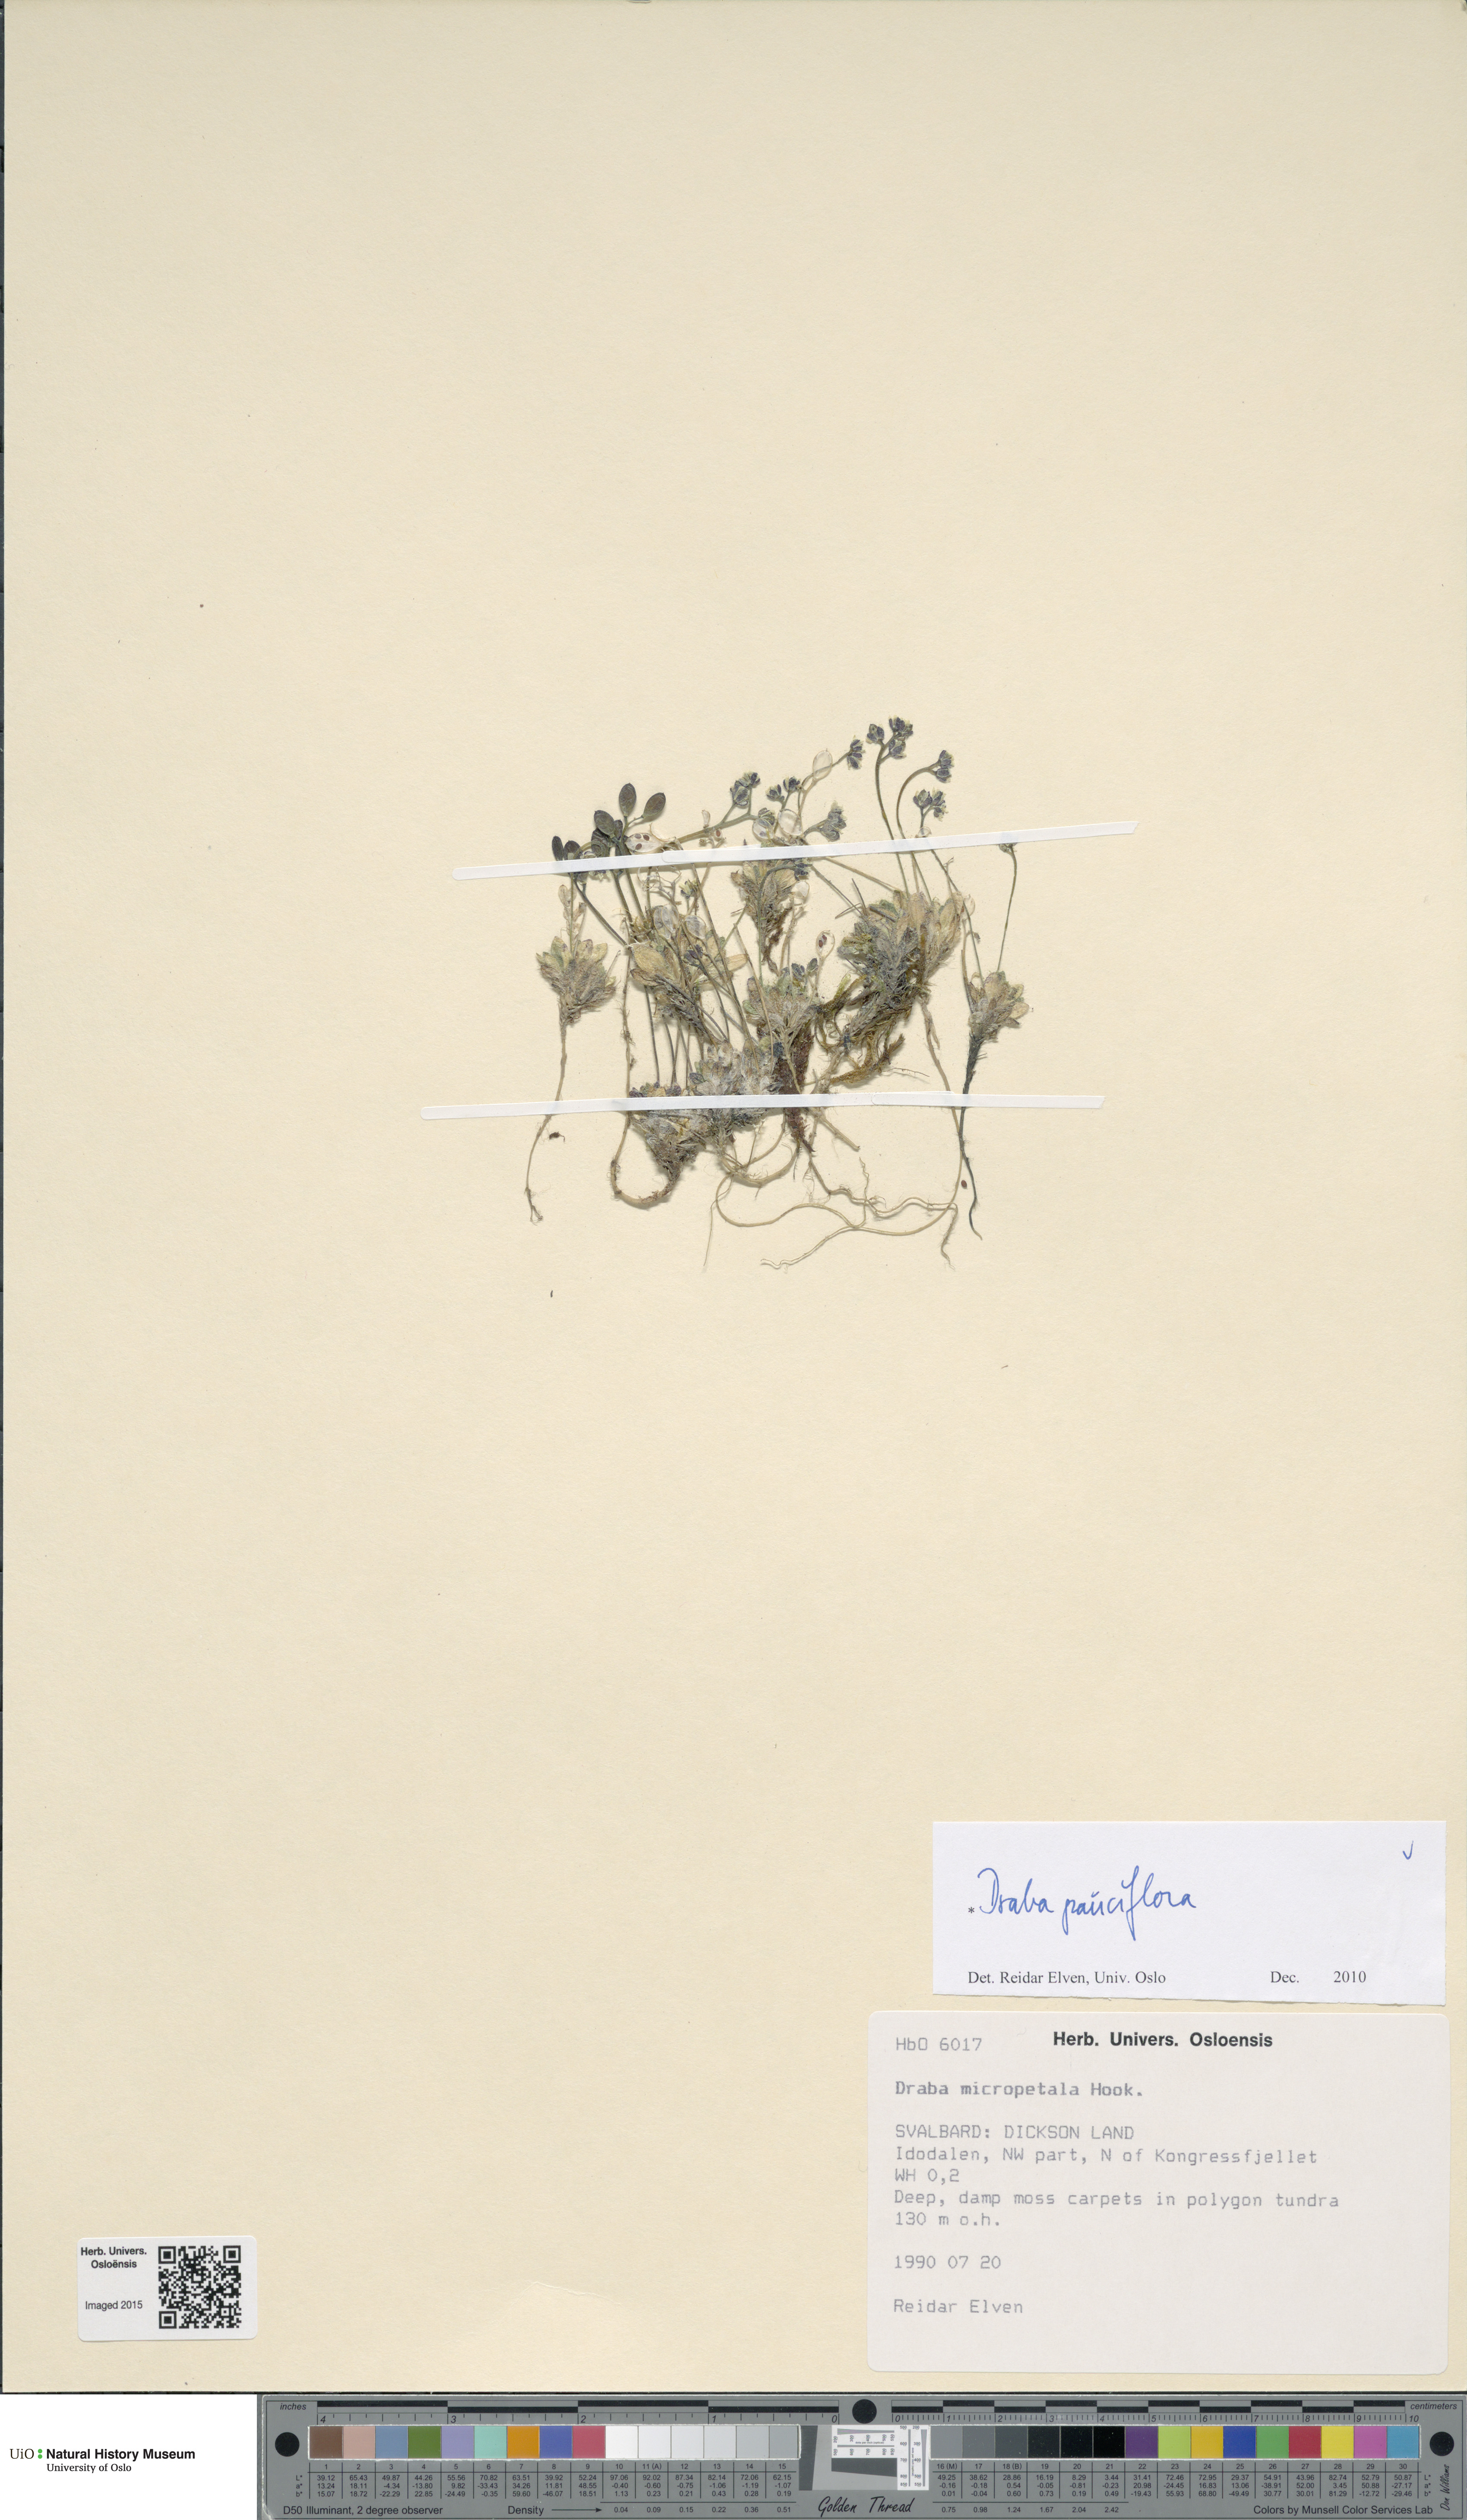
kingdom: Plantae
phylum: Tracheophyta
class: Magnoliopsida
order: Brassicales
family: Brassicaceae
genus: Draba
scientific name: Draba pauciflora
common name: Few-flowered draba
